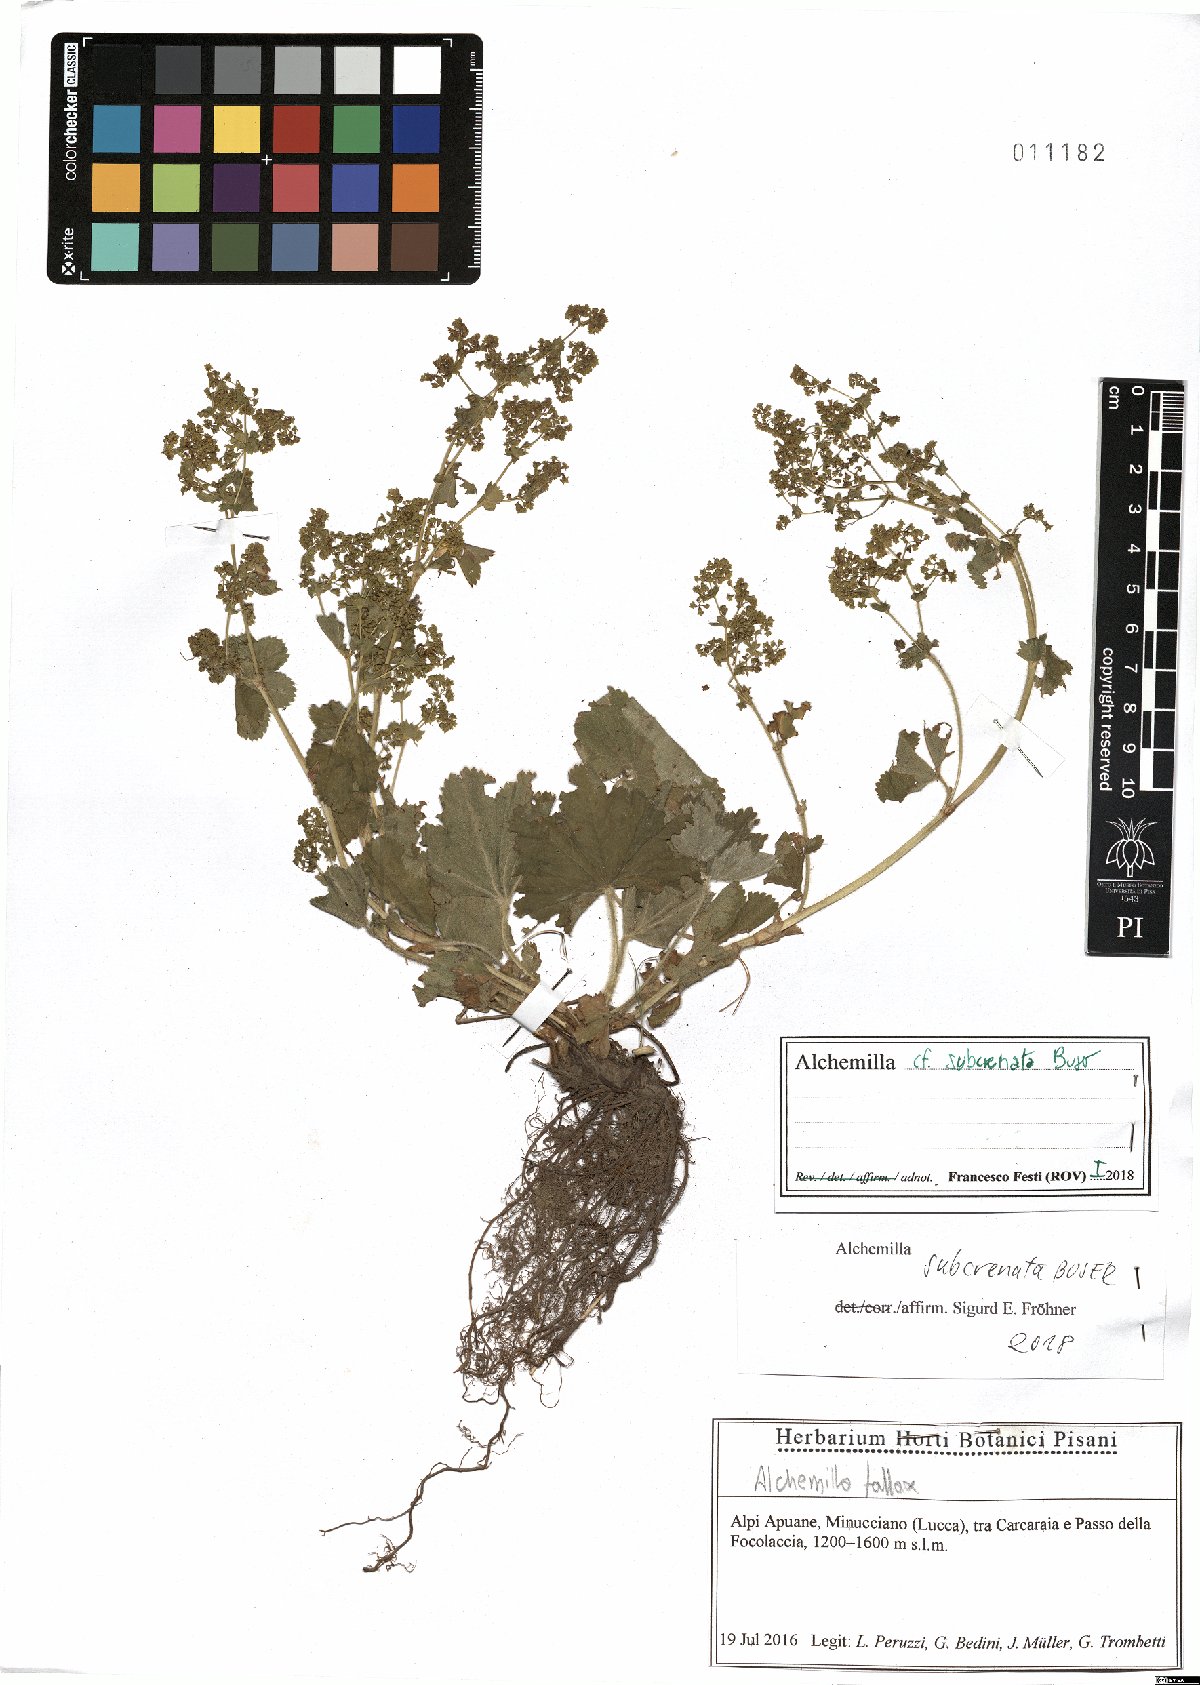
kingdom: Plantae
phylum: Tracheophyta
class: Magnoliopsida
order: Rosales
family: Rosaceae
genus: Alchemilla
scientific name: Alchemilla subcrenata
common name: Broadtooth lady's mantle
